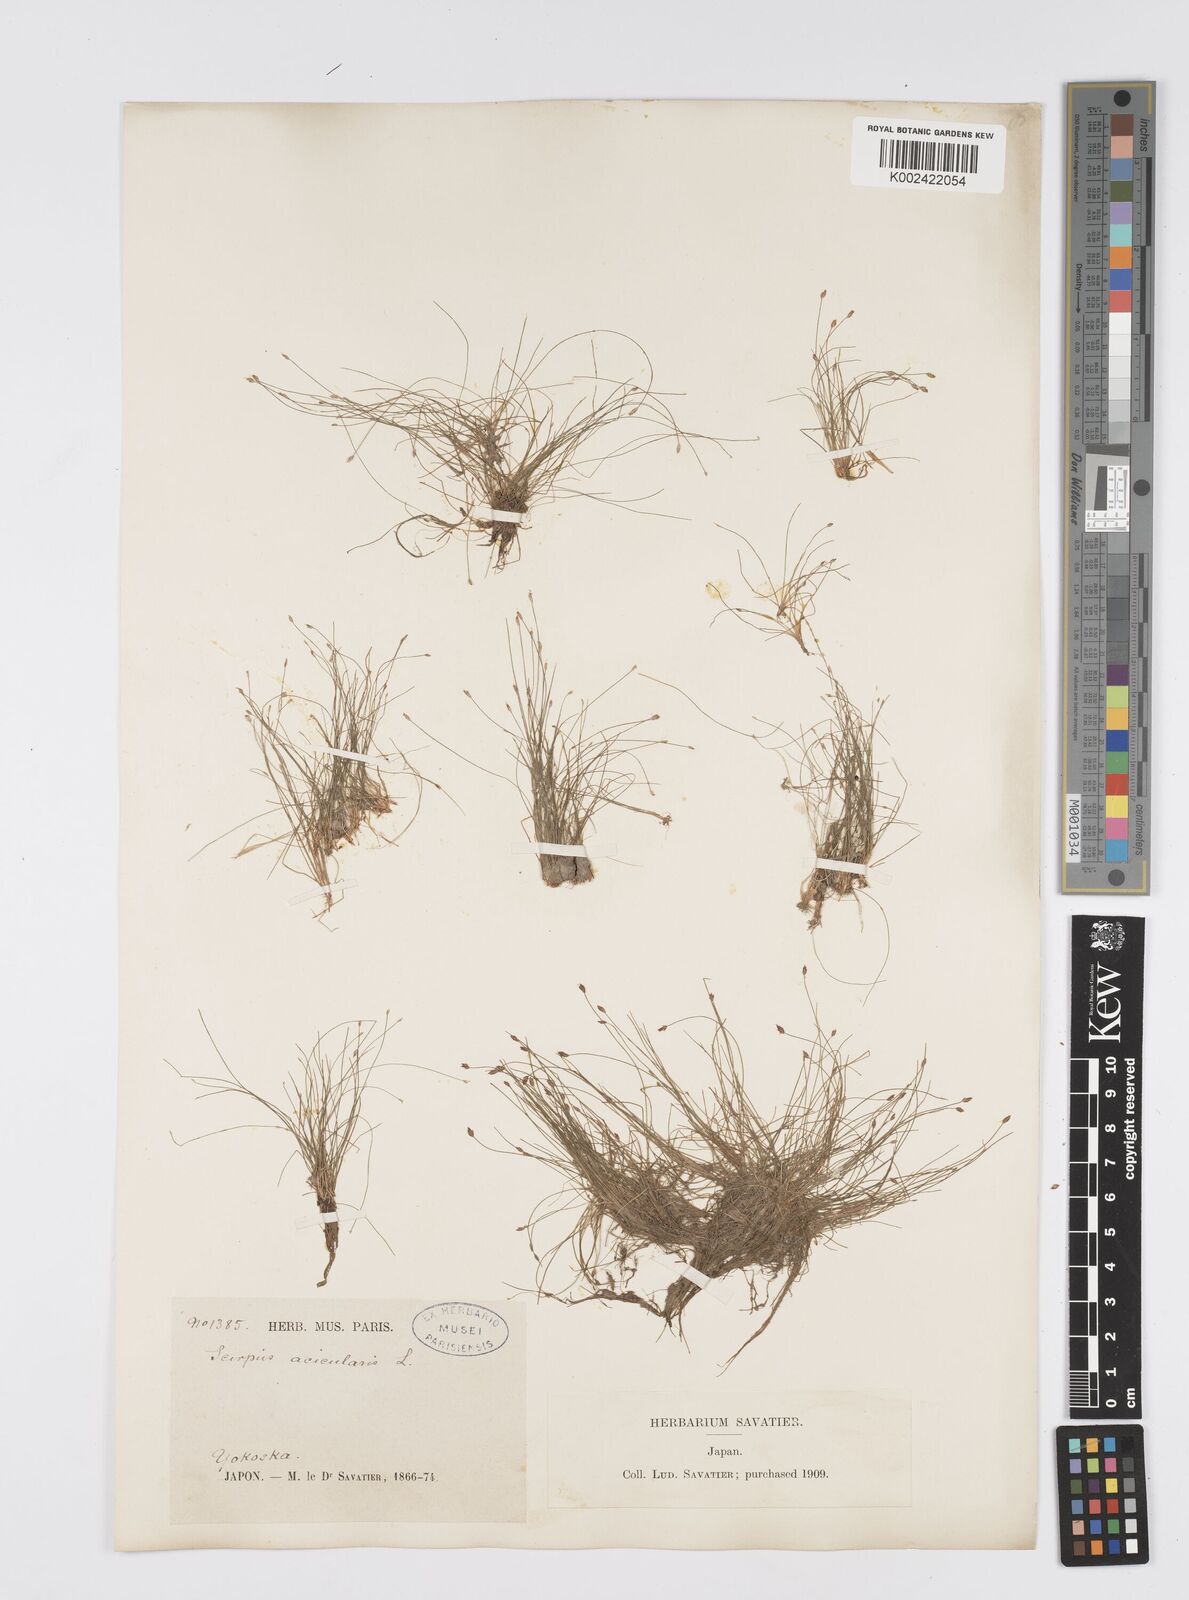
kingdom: Plantae
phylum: Tracheophyta
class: Liliopsida
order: Poales
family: Cyperaceae
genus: Eleocharis
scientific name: Eleocharis acicularis
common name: Needle spike-rush
